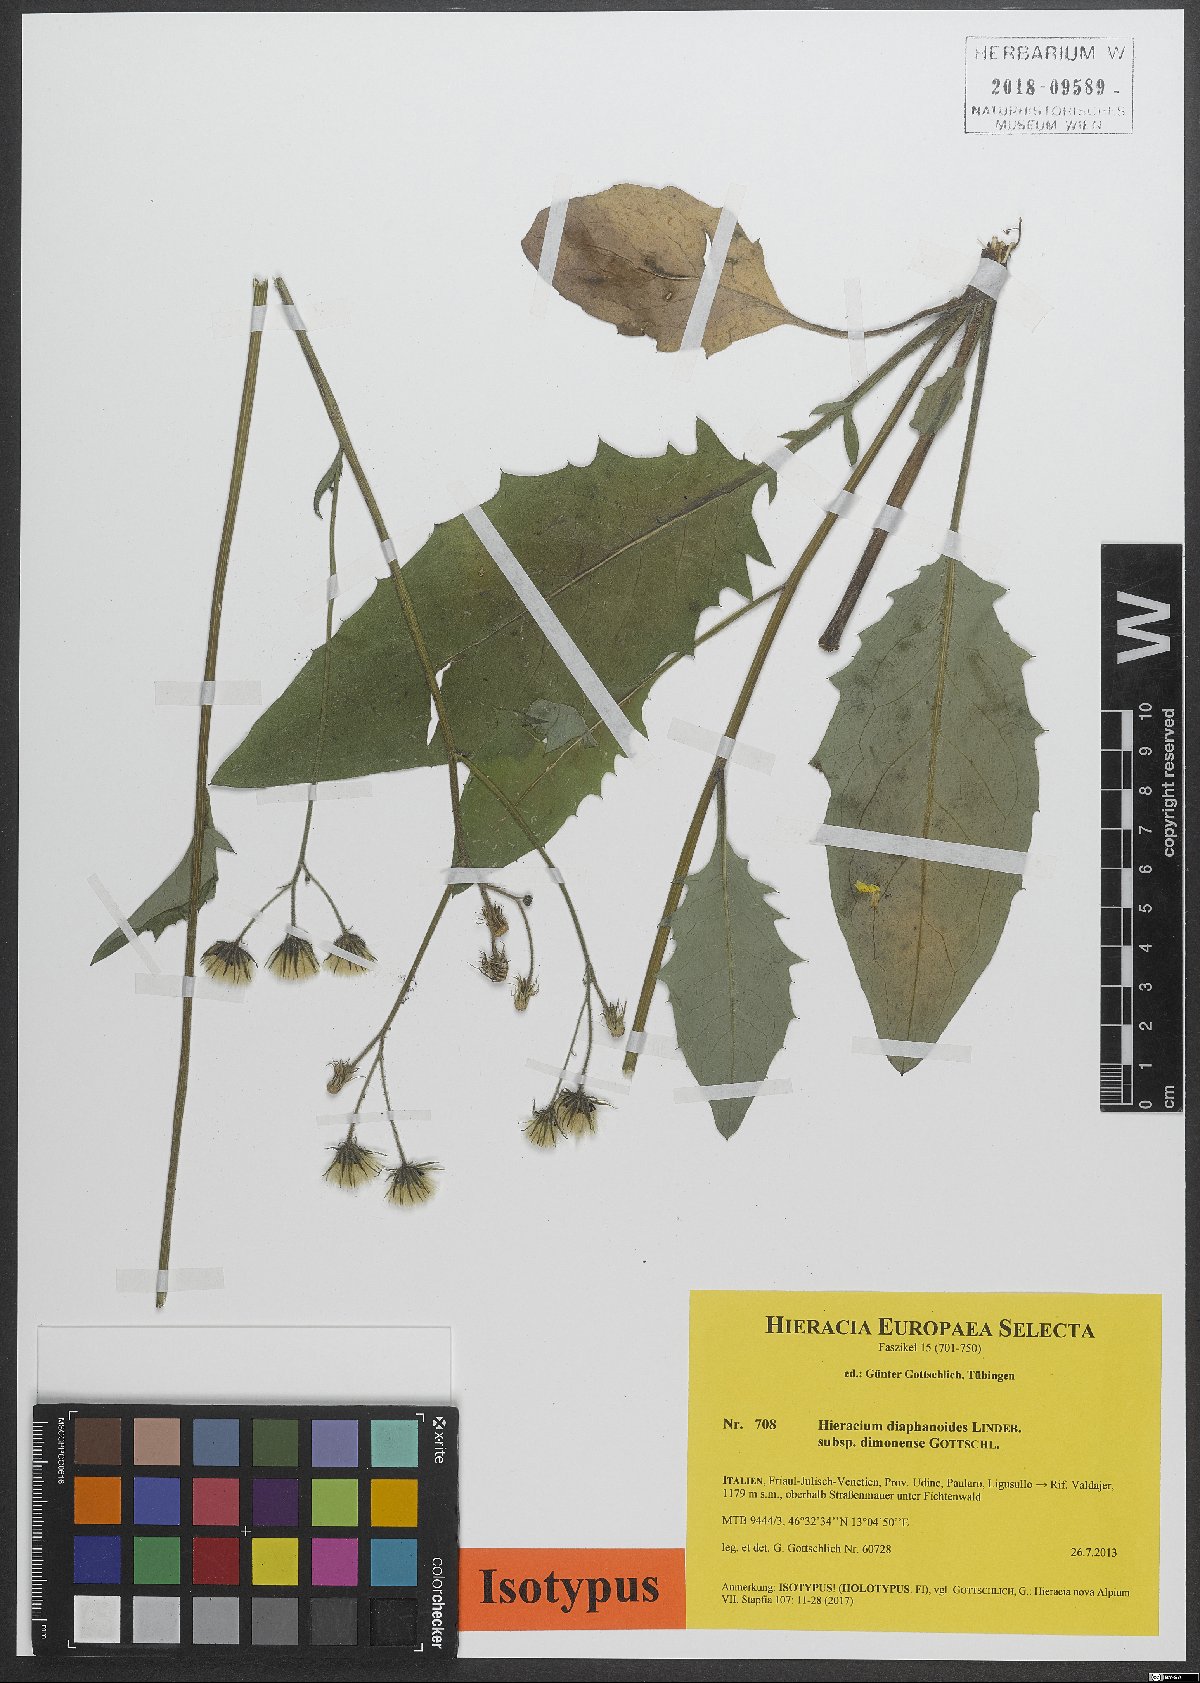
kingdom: Plantae
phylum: Tracheophyta
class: Magnoliopsida
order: Asterales
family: Asteraceae
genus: Hieracium
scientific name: Hieracium diaphanoides
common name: Fine-bracted hawkweed
